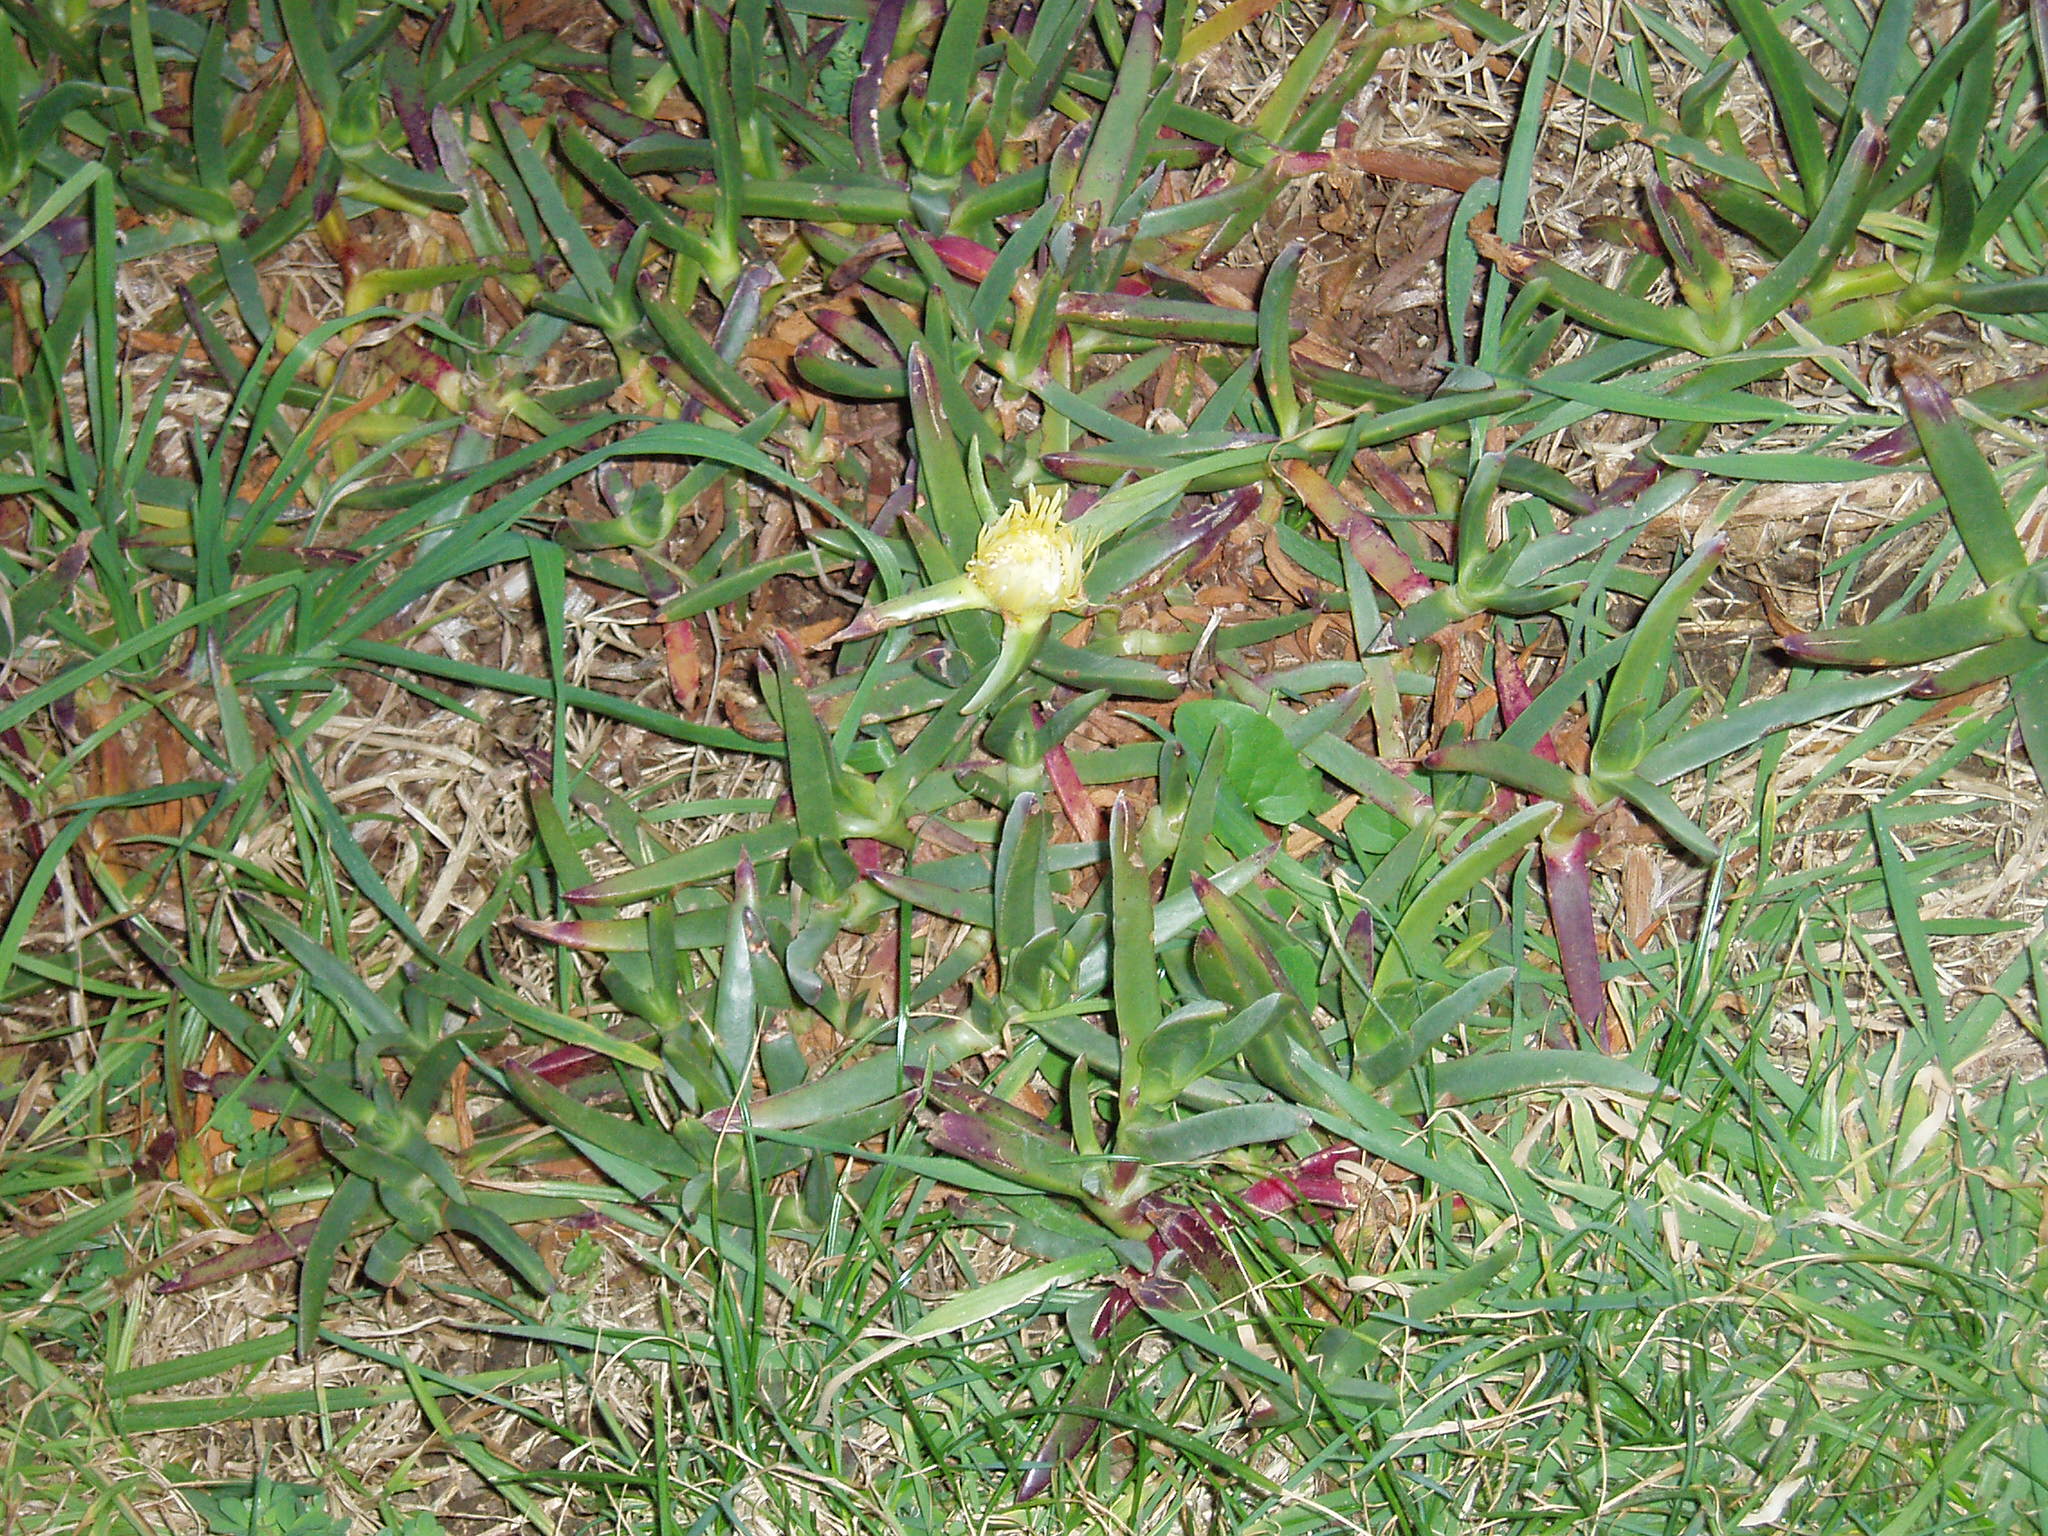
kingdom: Plantae
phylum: Tracheophyta
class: Magnoliopsida
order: Caryophyllales
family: Aizoaceae
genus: Carpobrotus
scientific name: Carpobrotus edulis
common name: Hottentot-fig
